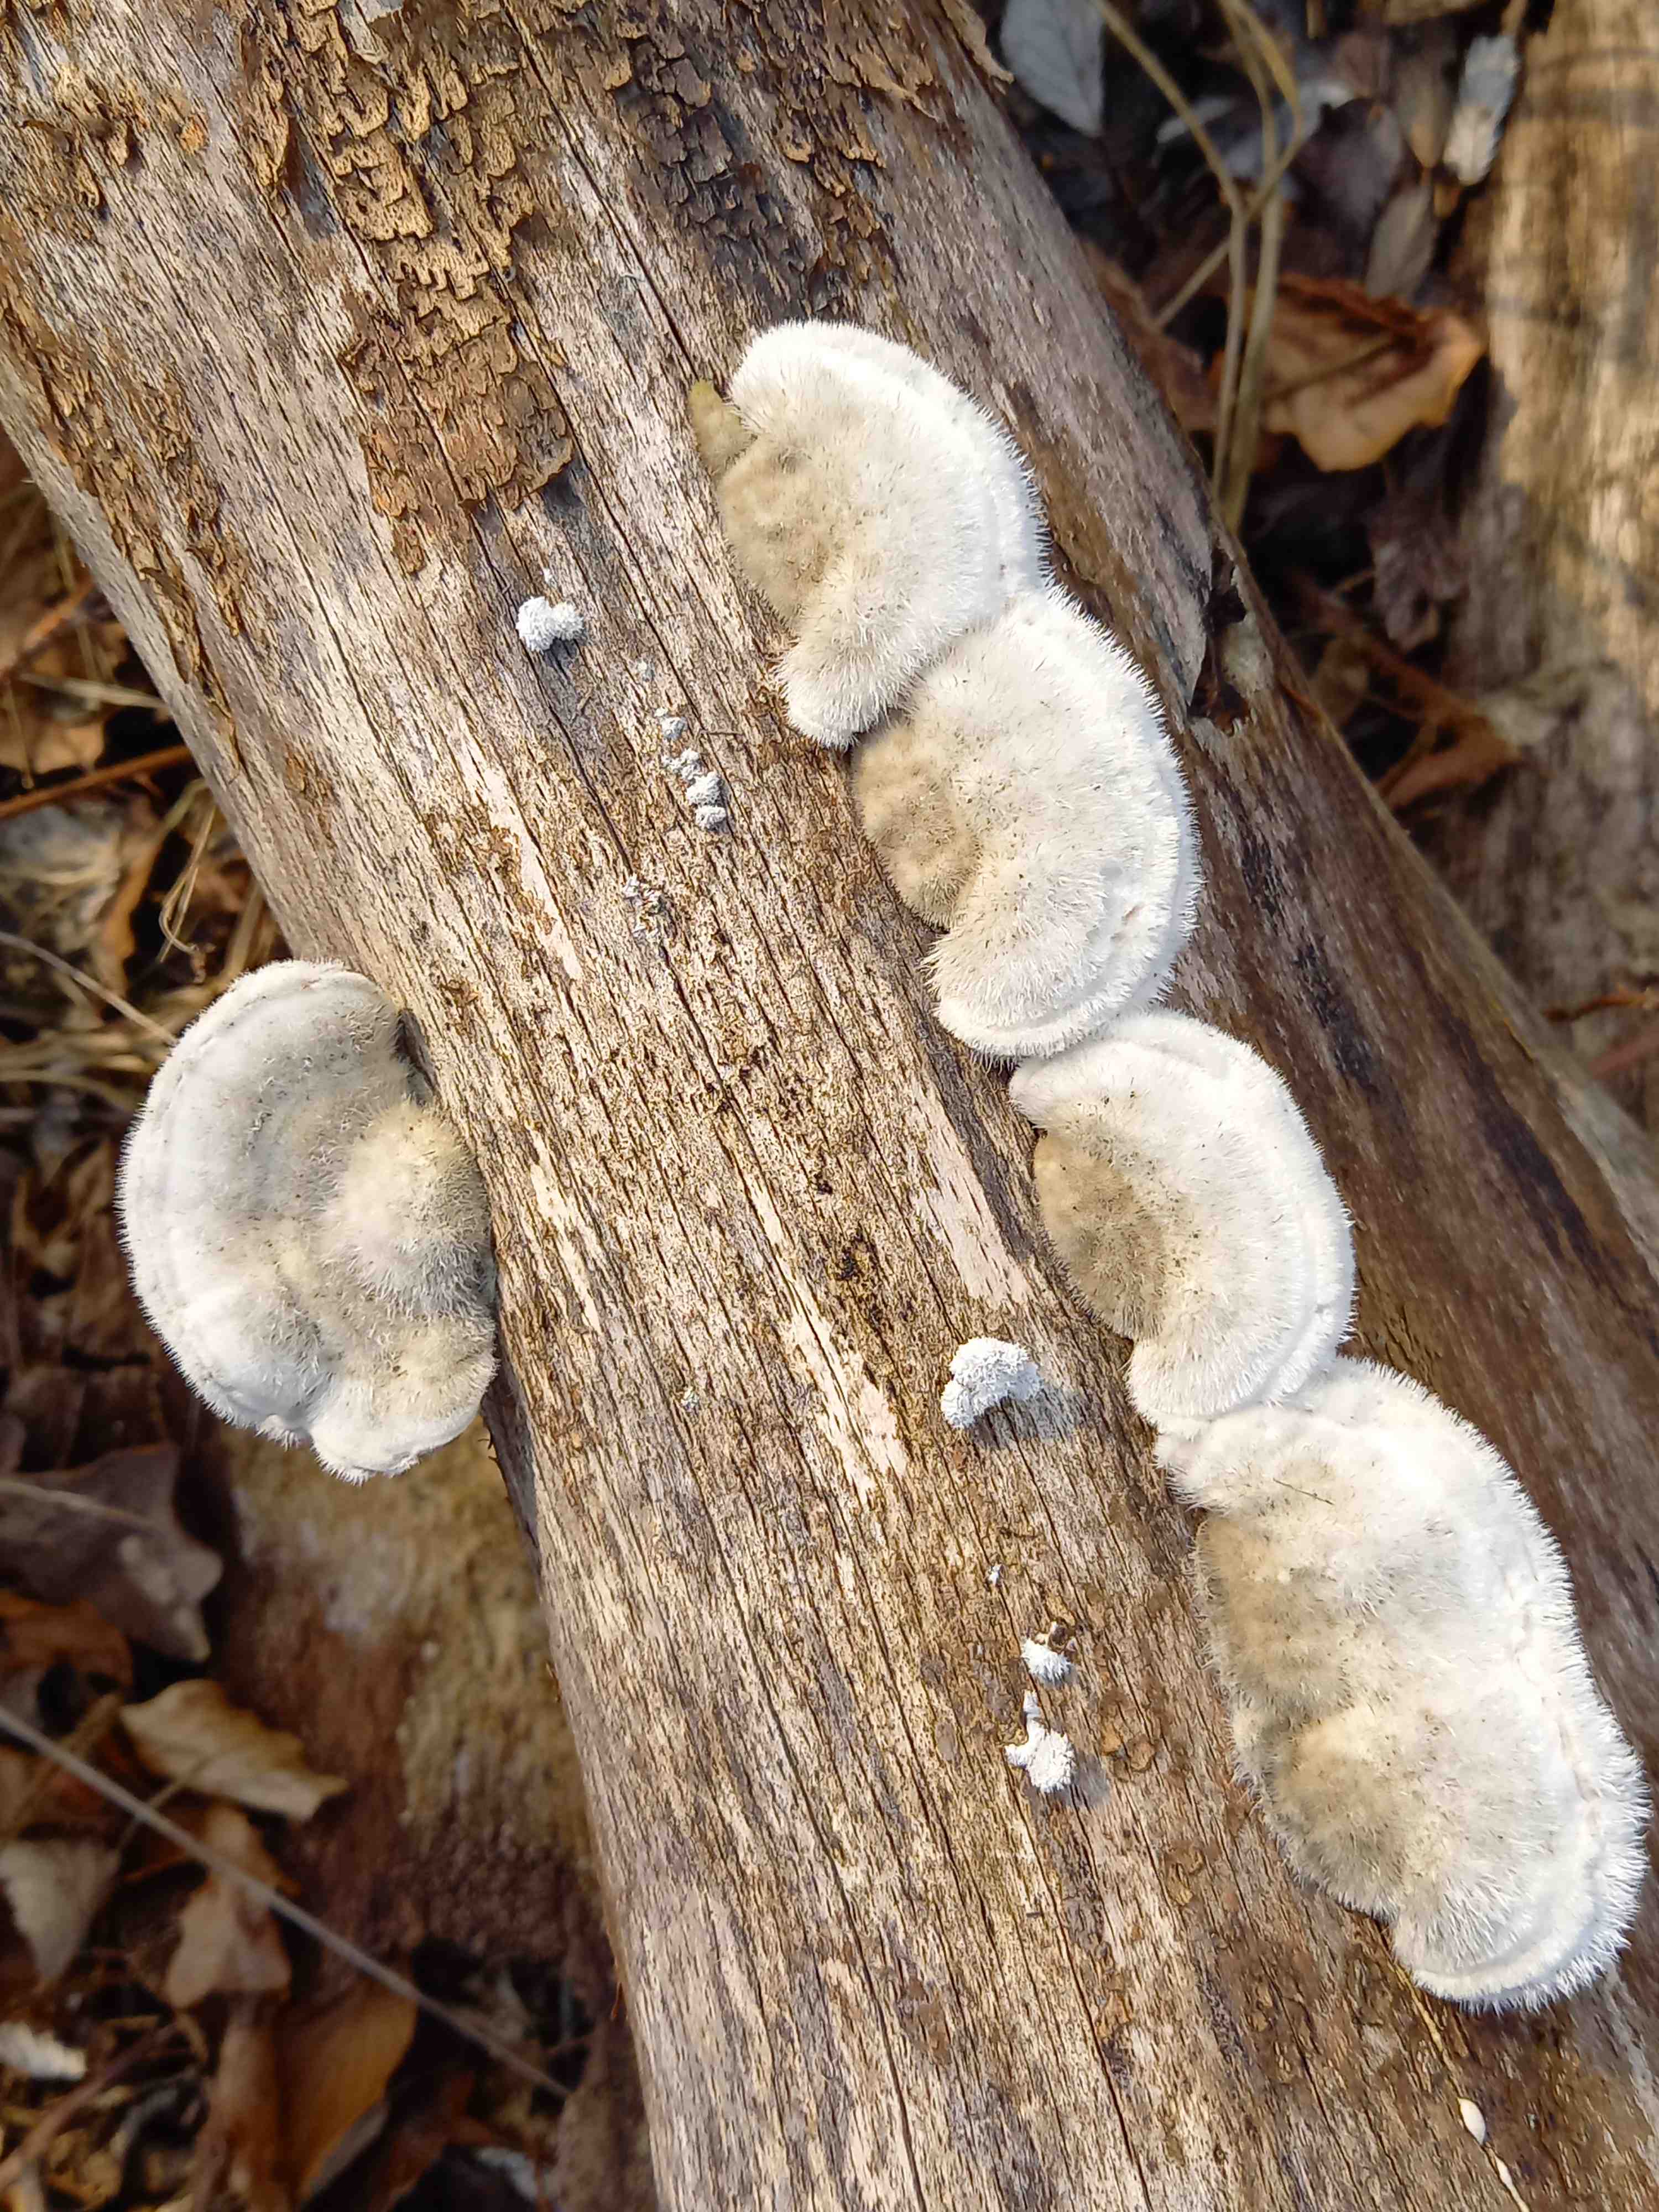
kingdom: Fungi
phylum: Basidiomycota
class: Agaricomycetes
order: Polyporales
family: Polyporaceae
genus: Trametes
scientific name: Trametes hirsuta
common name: håret læderporesvamp
